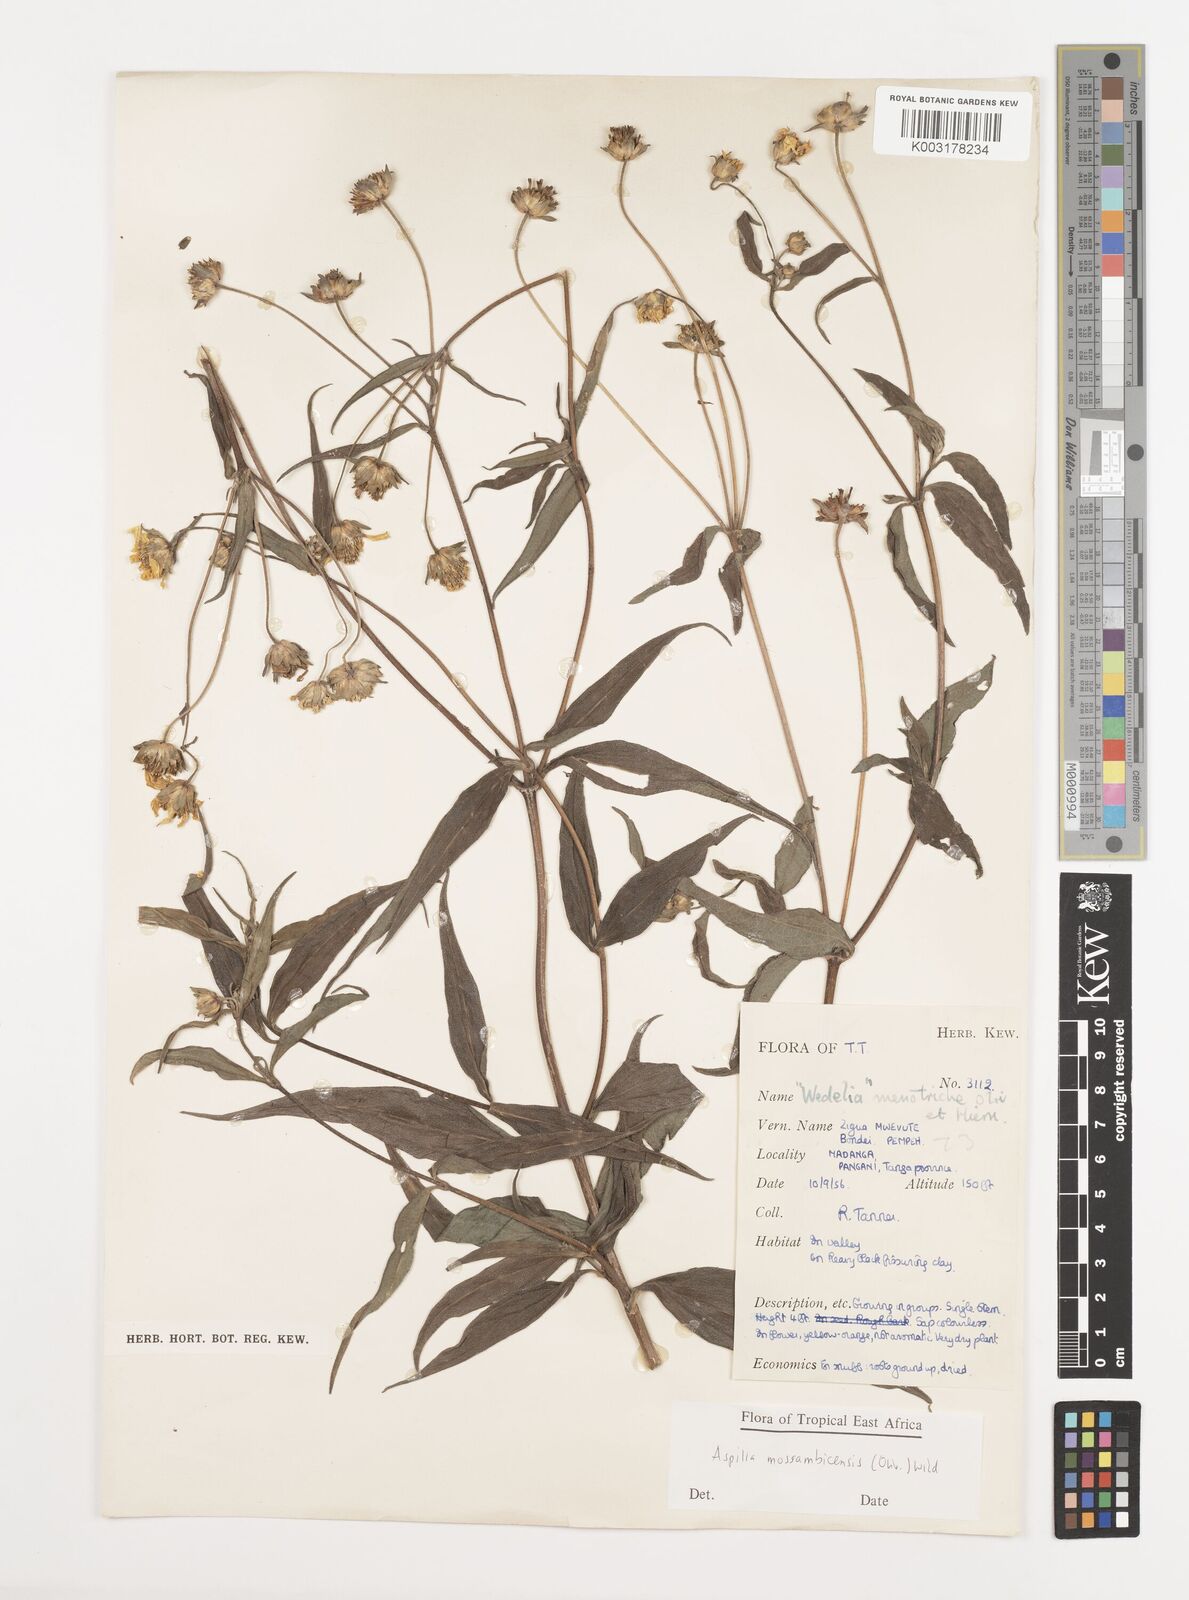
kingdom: Plantae
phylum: Tracheophyta
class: Magnoliopsida
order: Asterales
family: Asteraceae
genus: Aspilia
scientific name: Aspilia mossambicensis
